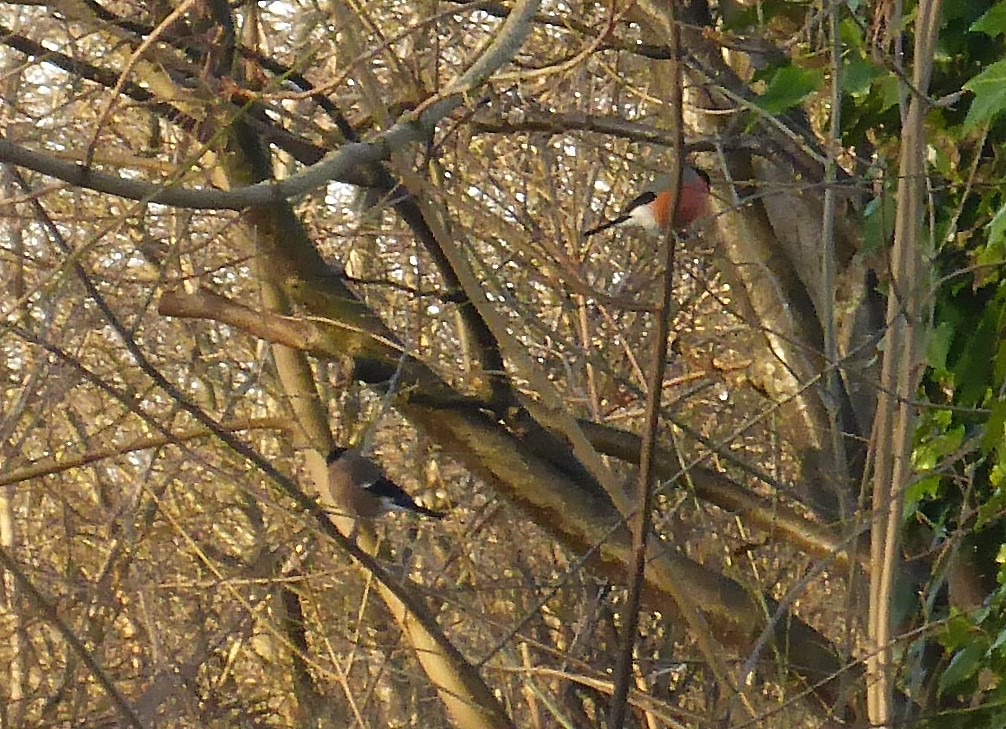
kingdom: Animalia
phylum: Chordata
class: Aves
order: Passeriformes
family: Fringillidae
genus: Pyrrhula
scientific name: Pyrrhula pyrrhula
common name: Dompap
